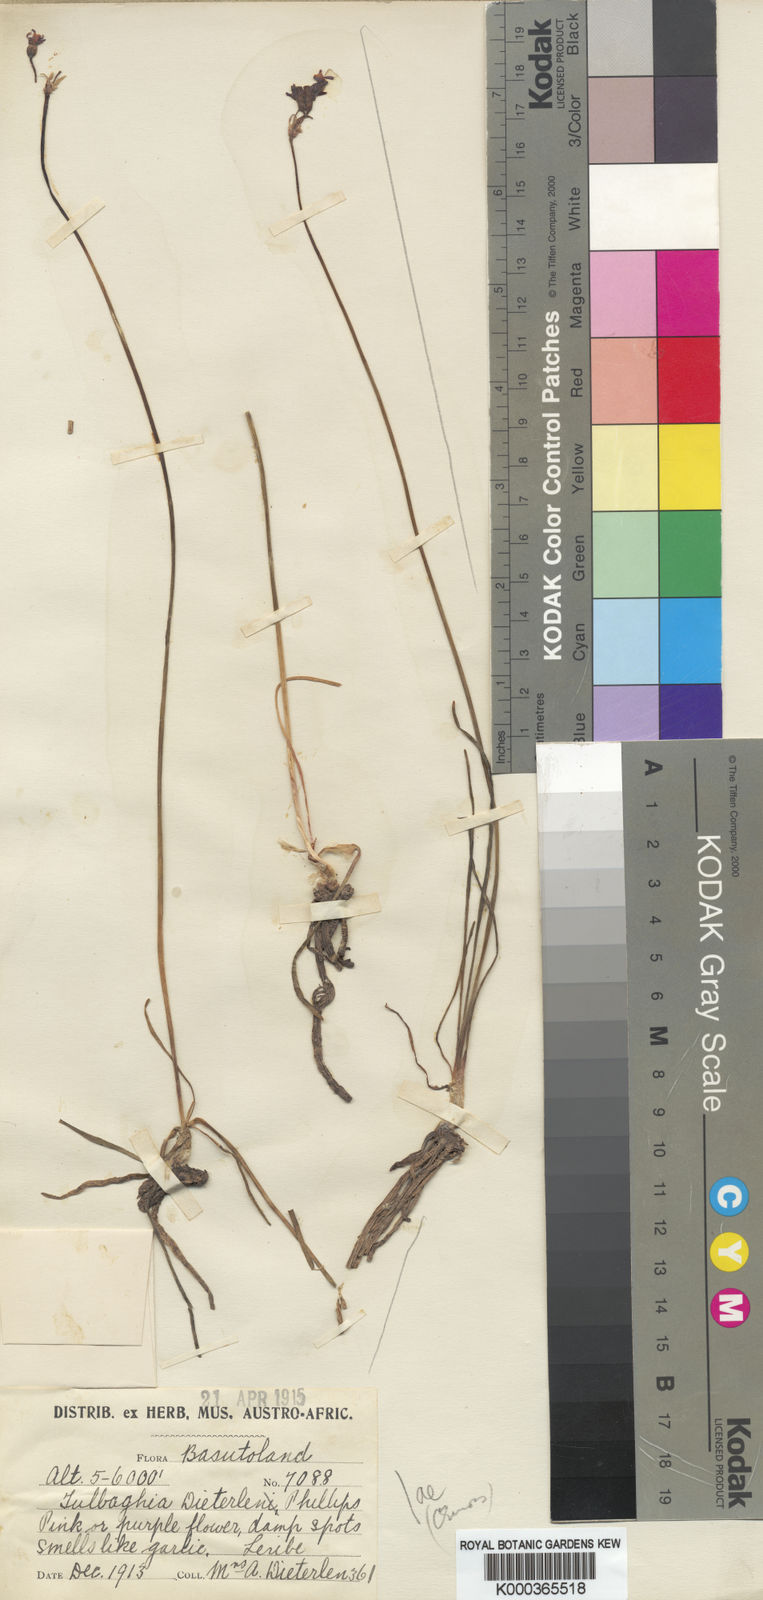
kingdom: Plantae
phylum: Tracheophyta
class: Liliopsida
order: Asparagales
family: Amaryllidaceae
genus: Tulbaghia
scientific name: Tulbaghia leucantha
